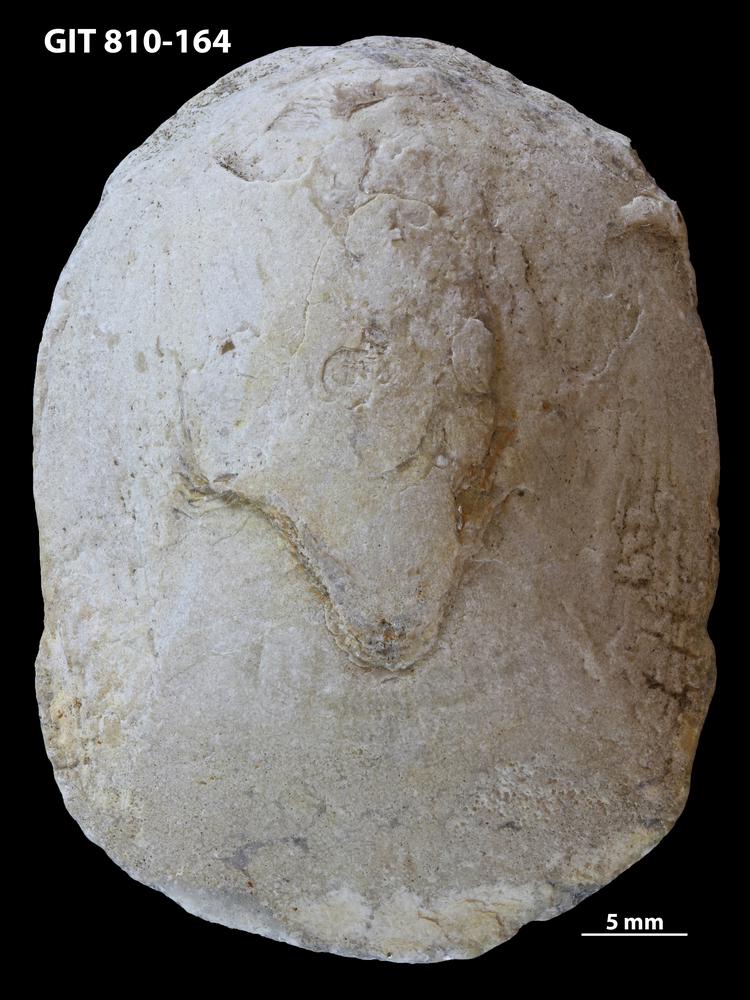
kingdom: Animalia
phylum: Brachiopoda
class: Lingulata
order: Lingulida
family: Pseudolingulidae
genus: Pseudolingula
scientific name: Pseudolingula Crania quadrata
